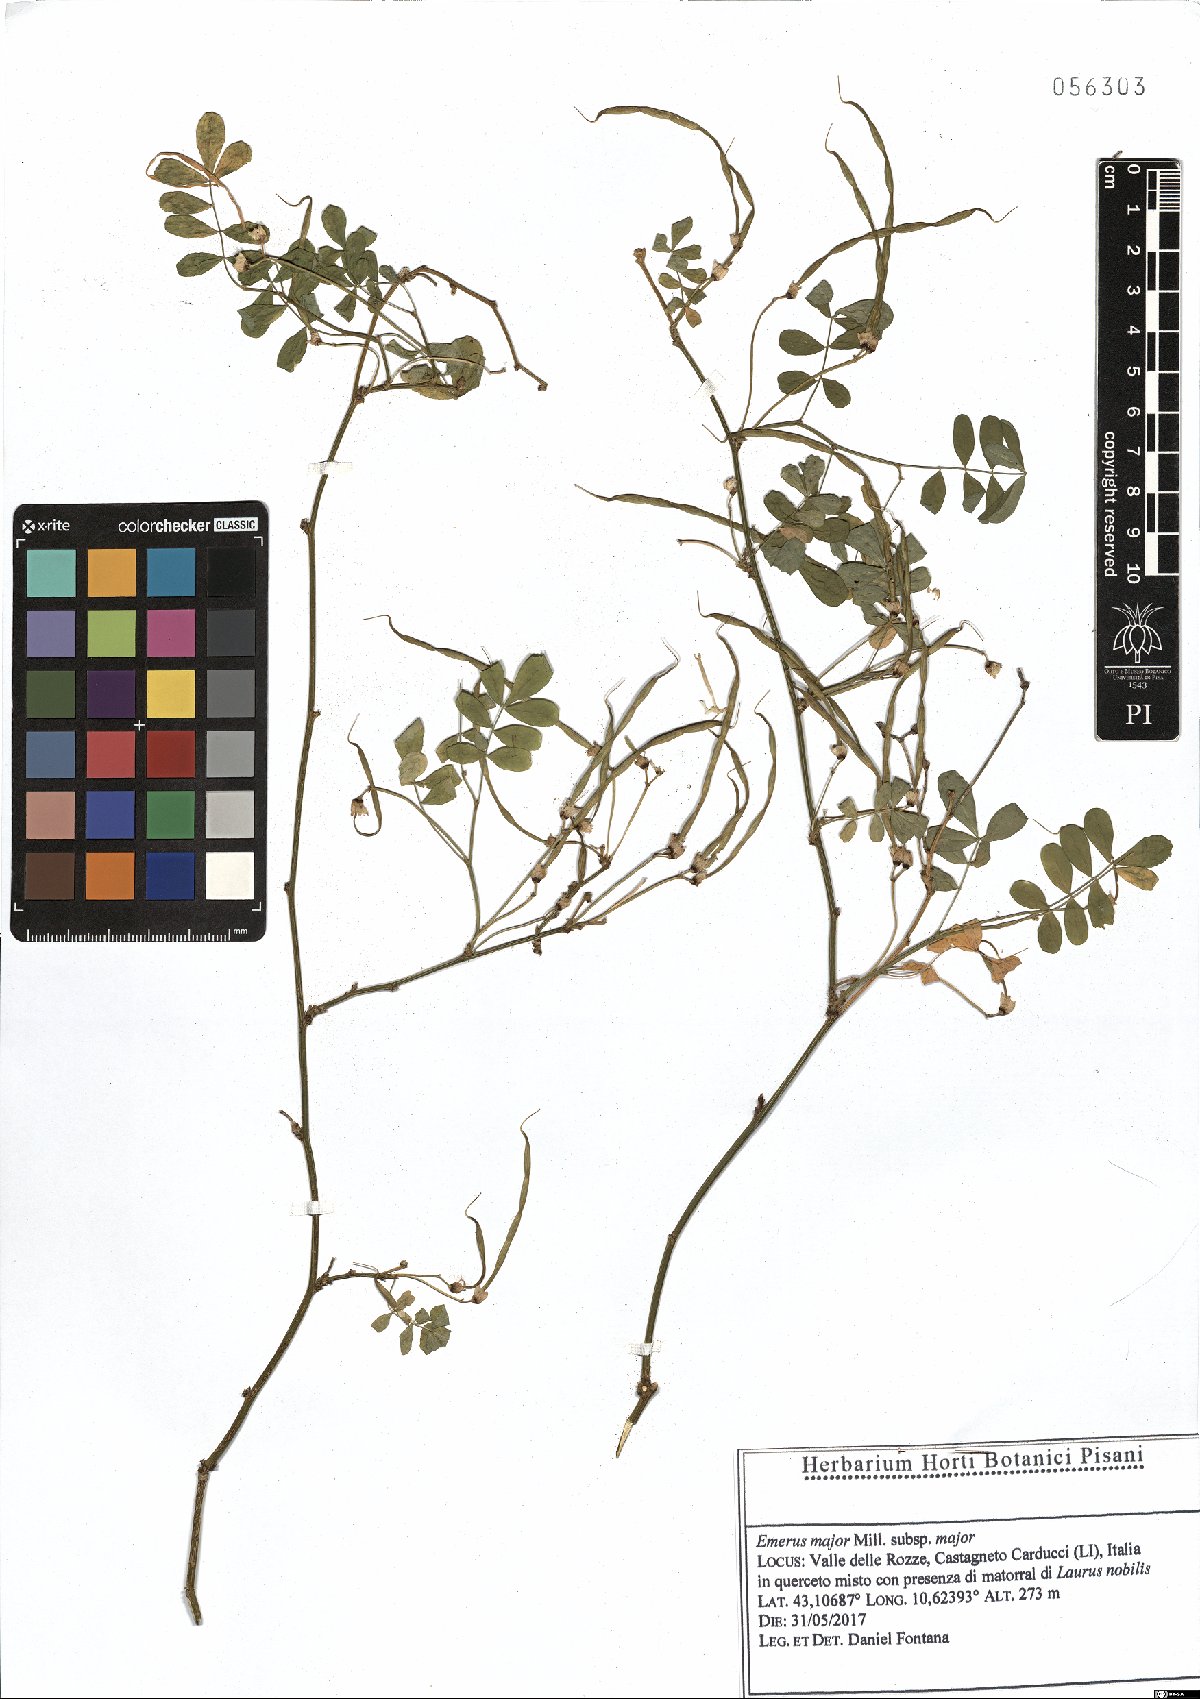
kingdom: Plantae
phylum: Tracheophyta
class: Magnoliopsida
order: Fabales
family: Fabaceae
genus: Hippocrepis
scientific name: Hippocrepis emerus
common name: Scorpion senna
